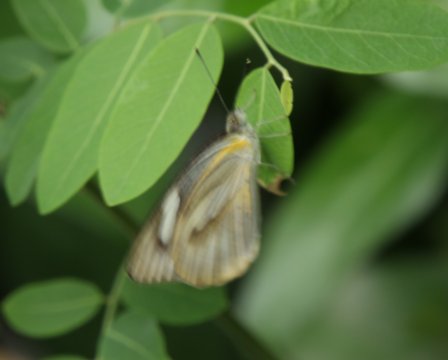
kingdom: Animalia
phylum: Arthropoda
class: Insecta
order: Lepidoptera
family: Pieridae
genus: Appias
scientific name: Appias libythea
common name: Striped Albatross
